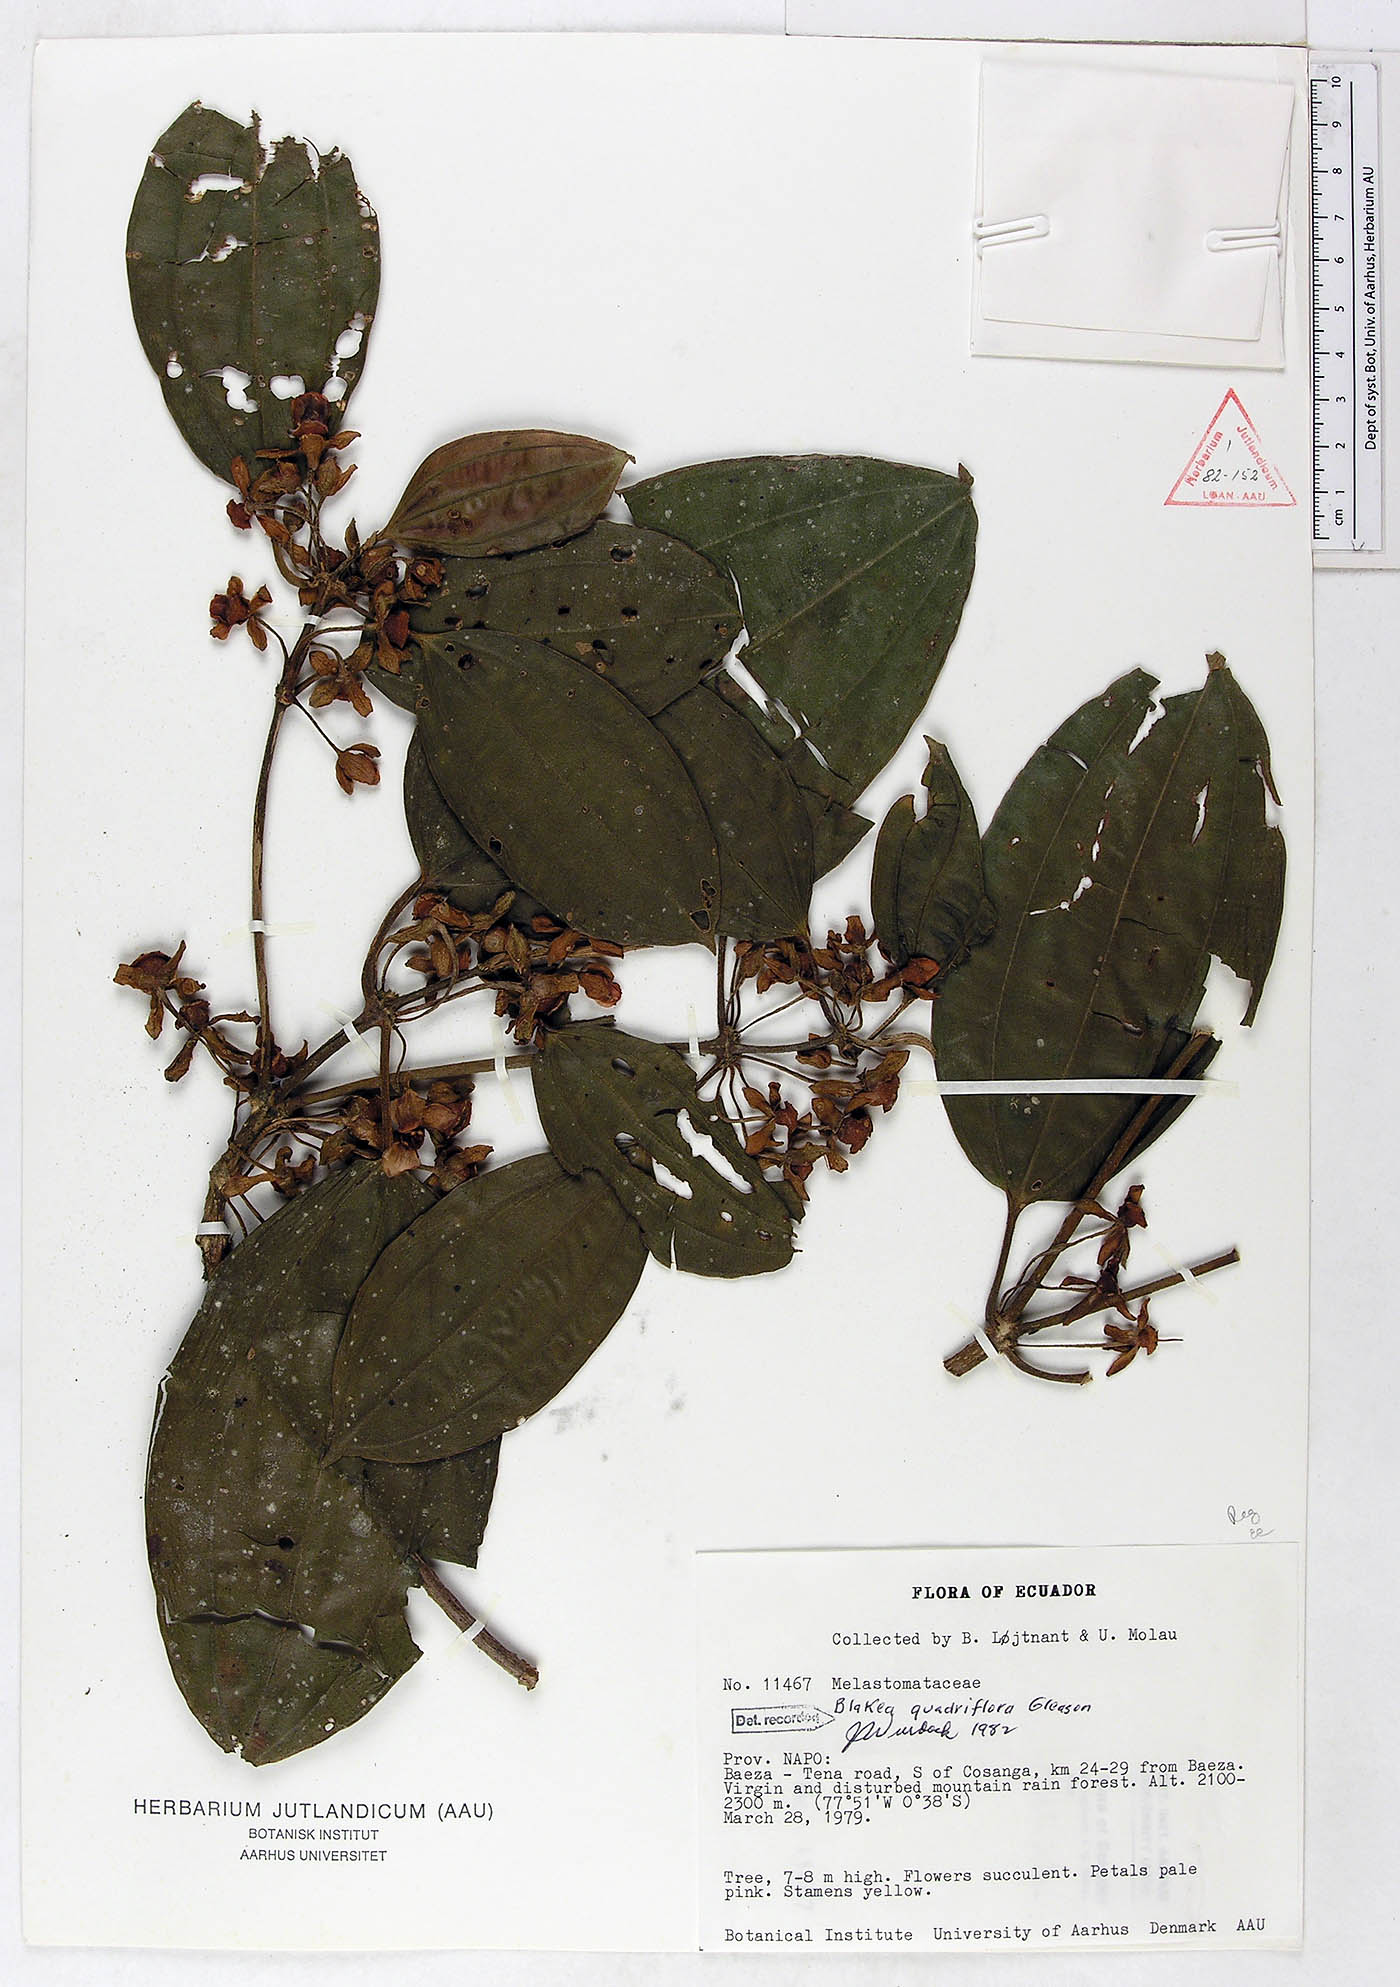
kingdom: Plantae
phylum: Tracheophyta
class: Magnoliopsida
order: Myrtales
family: Melastomataceae
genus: Blakea
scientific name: Blakea quadriflora
